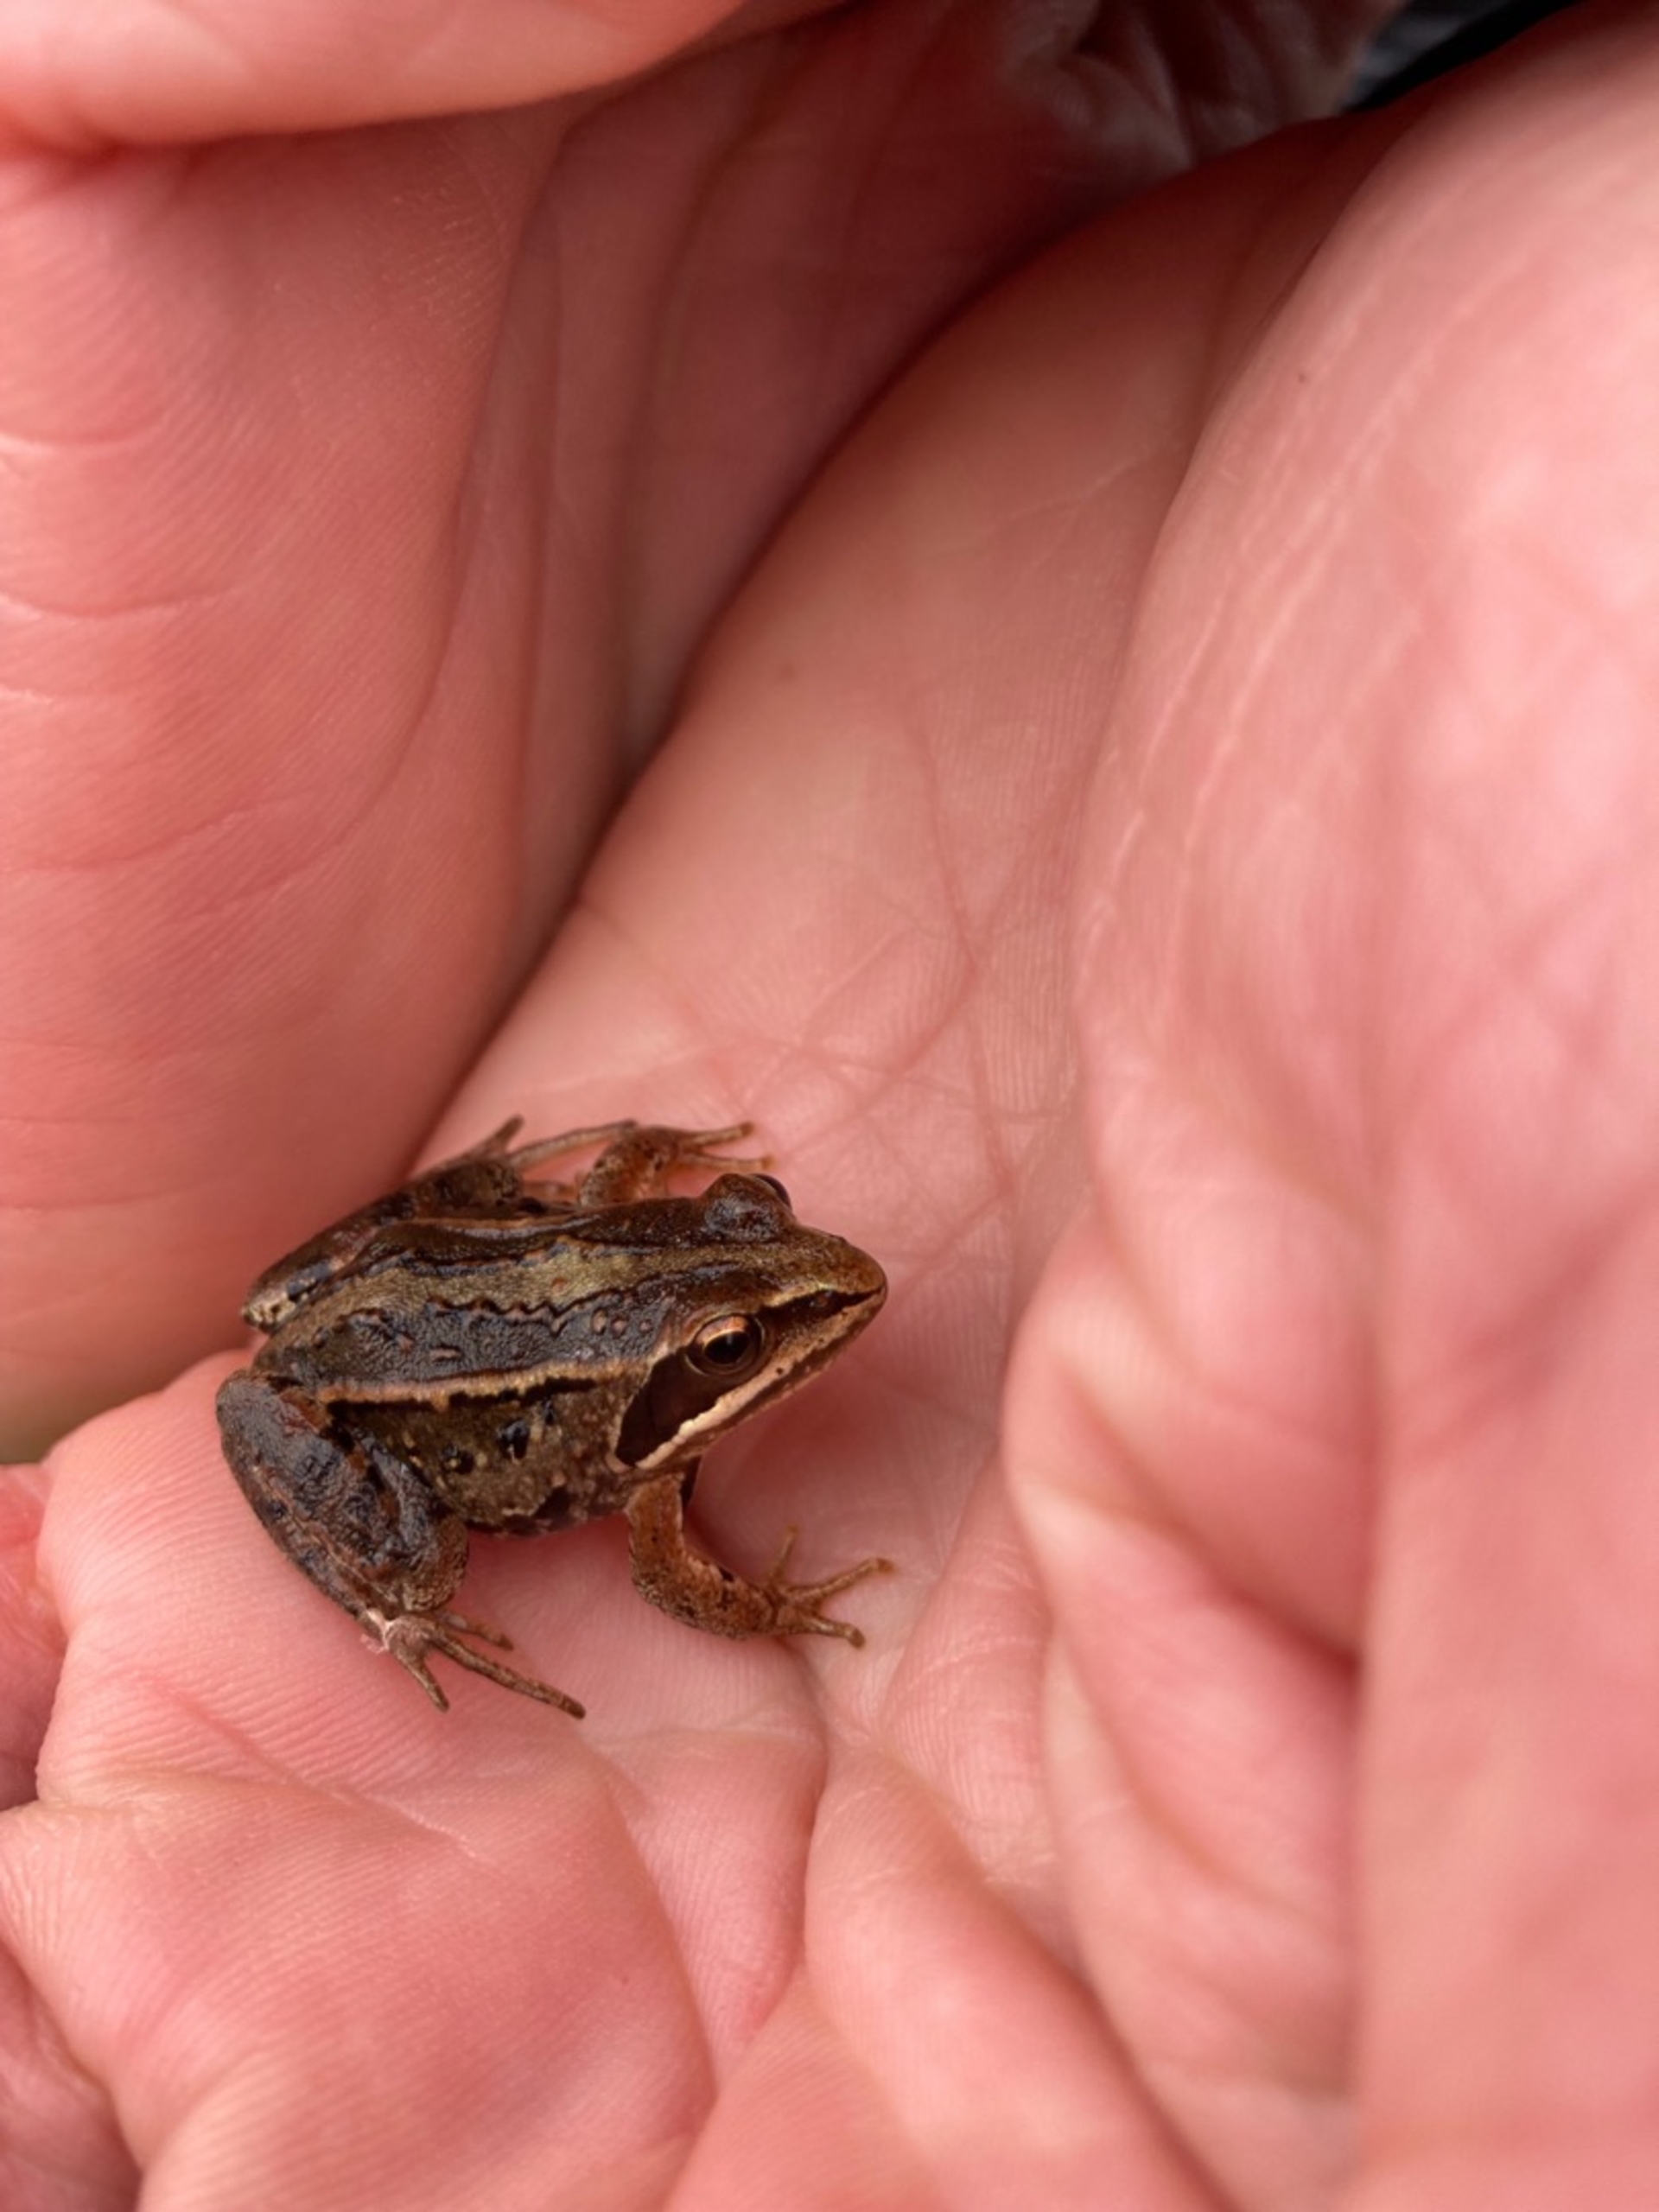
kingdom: Animalia
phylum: Chordata
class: Amphibia
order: Anura
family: Ranidae
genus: Rana
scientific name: Rana arvalis
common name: Spidssnudet frø
